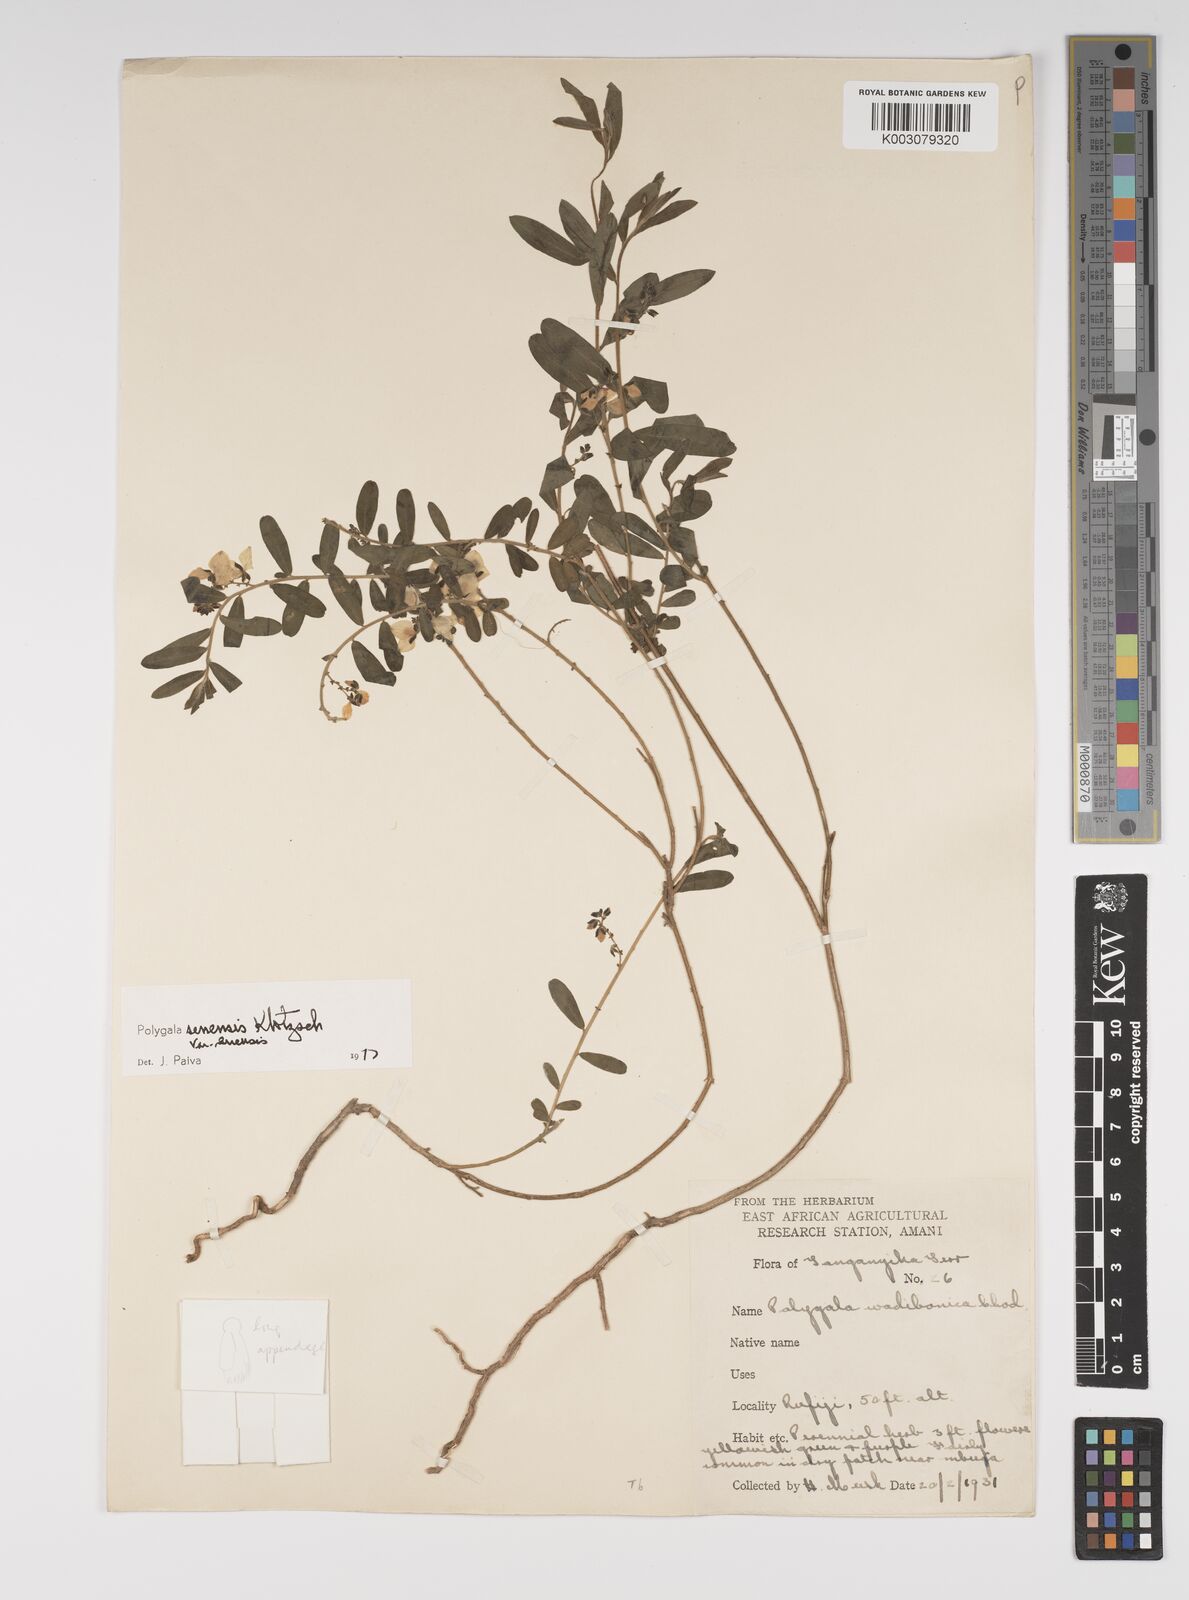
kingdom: Plantae
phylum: Tracheophyta
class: Magnoliopsida
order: Fabales
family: Polygalaceae
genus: Polygala
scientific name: Polygala senensis
